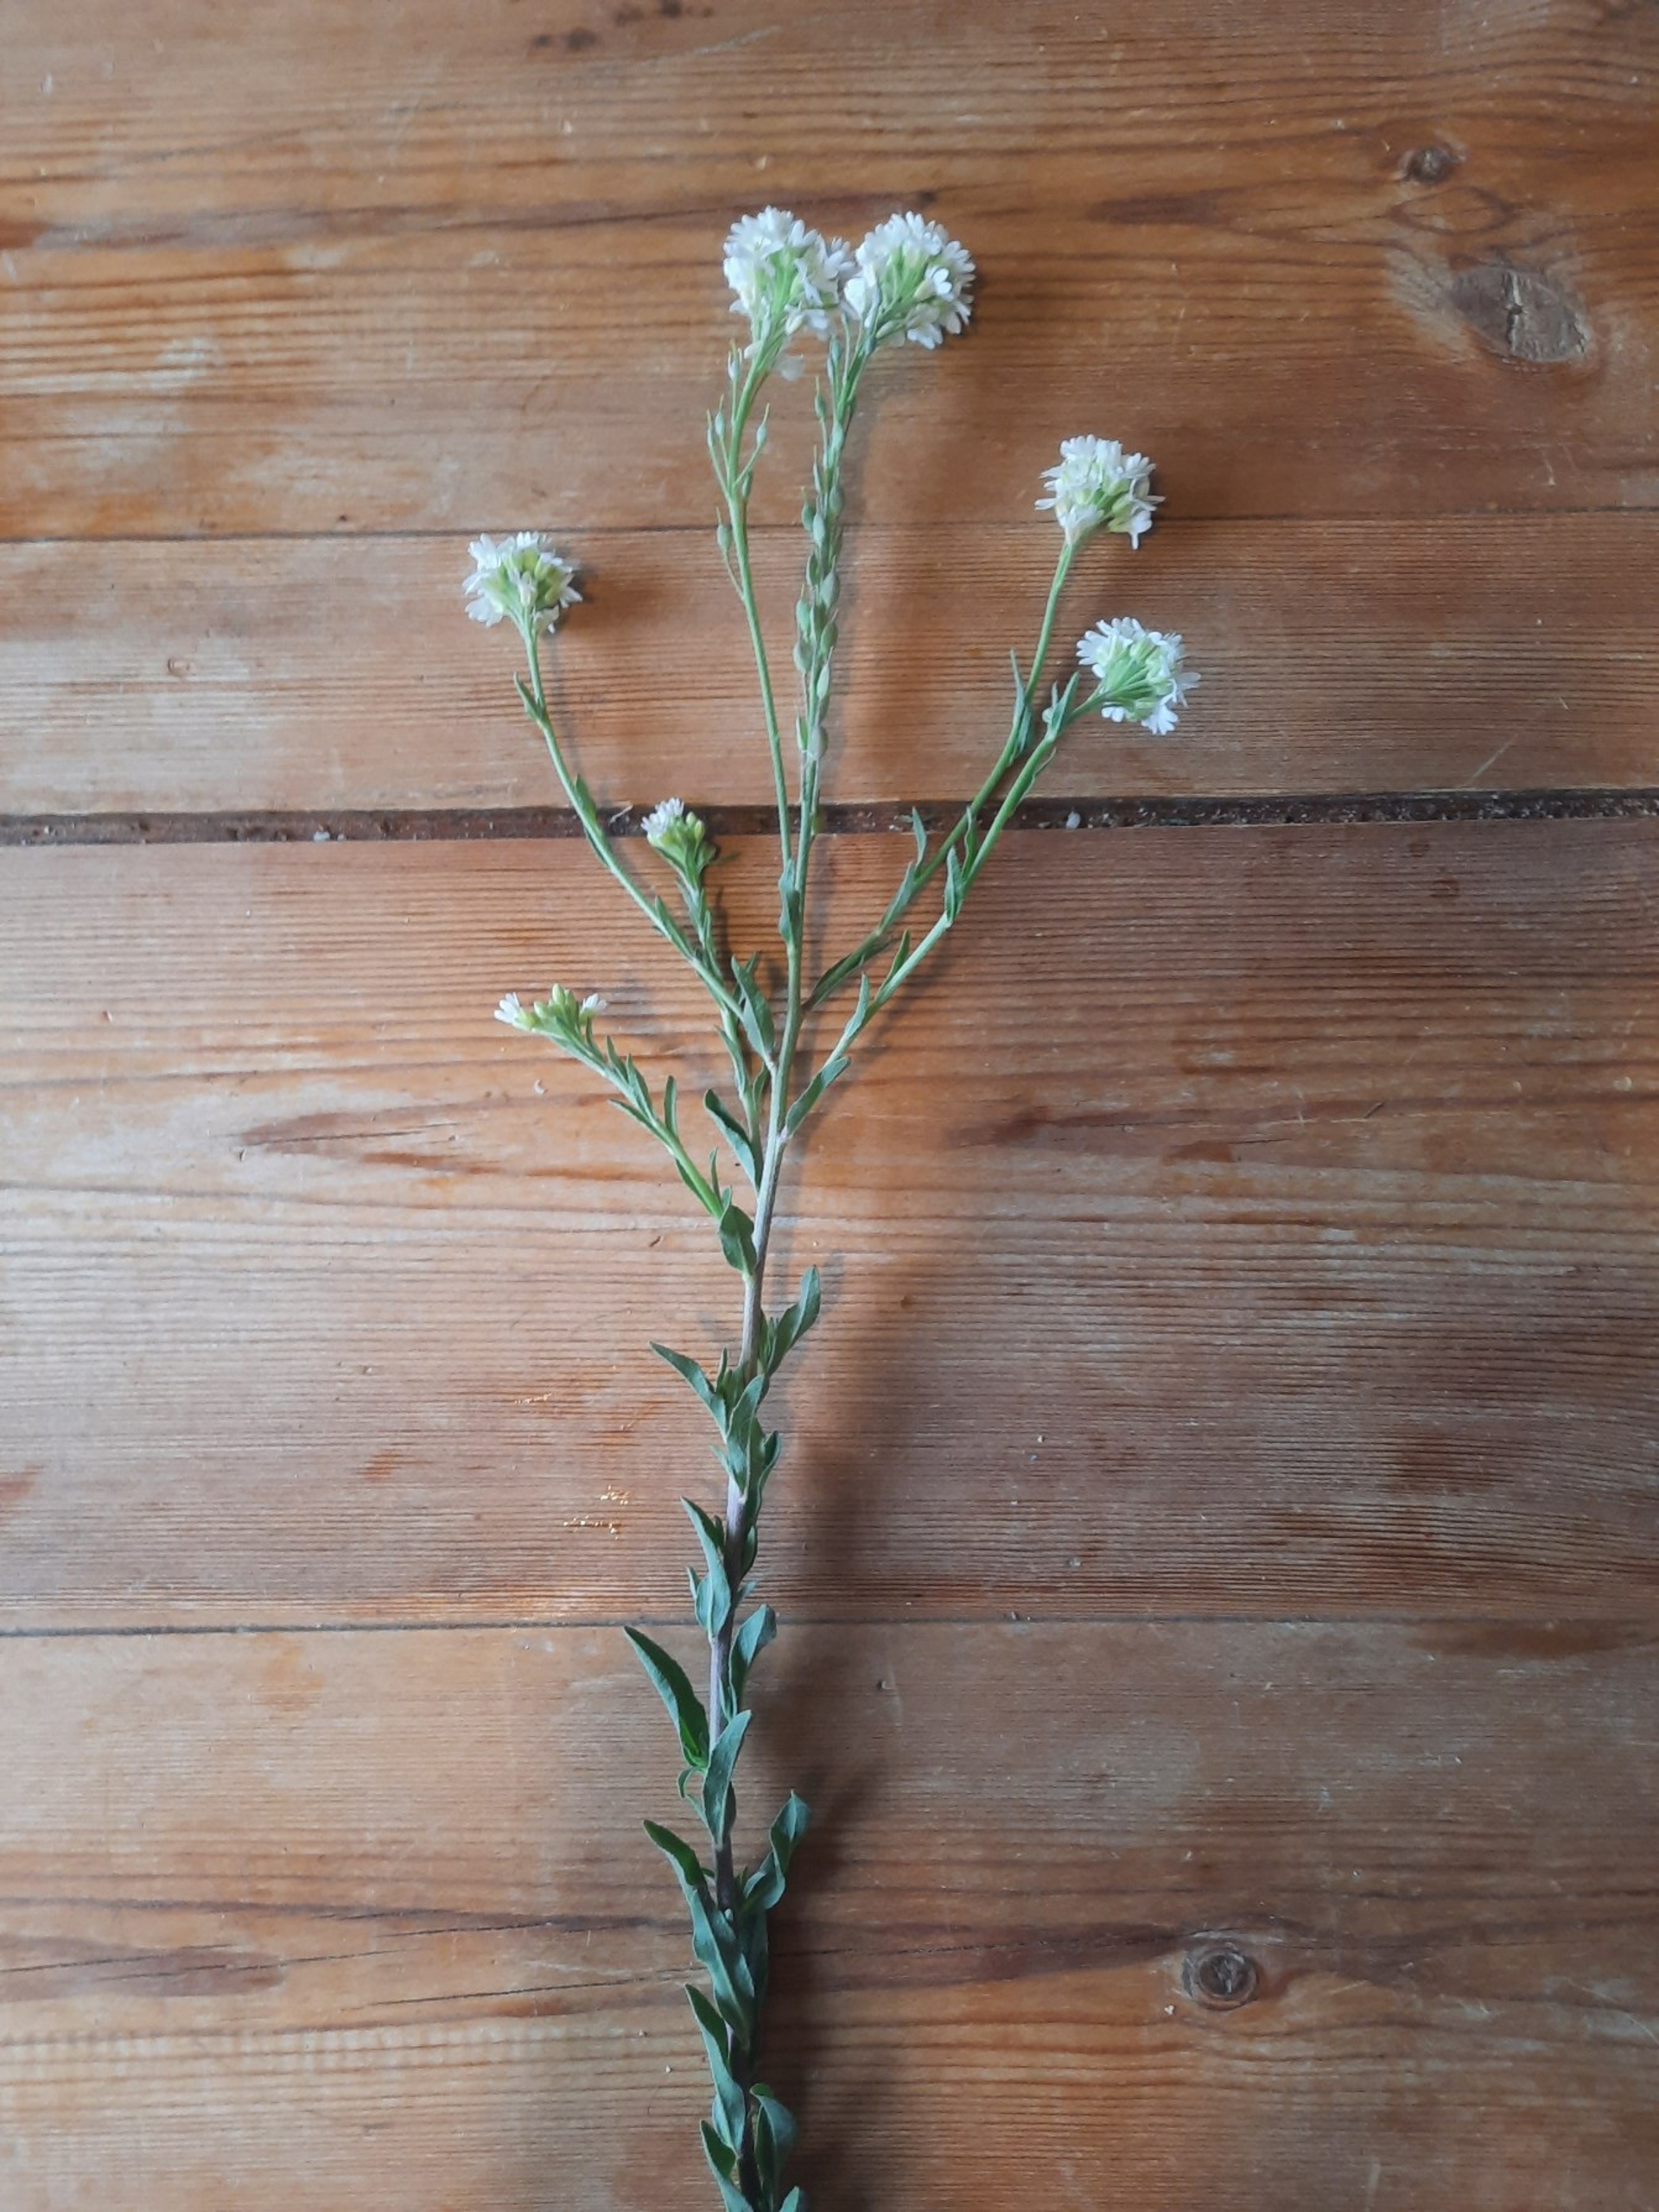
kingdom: Plantae
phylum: Tracheophyta
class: Magnoliopsida
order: Brassicales
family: Brassicaceae
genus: Berteroa
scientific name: Berteroa incana
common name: Kløvplade
